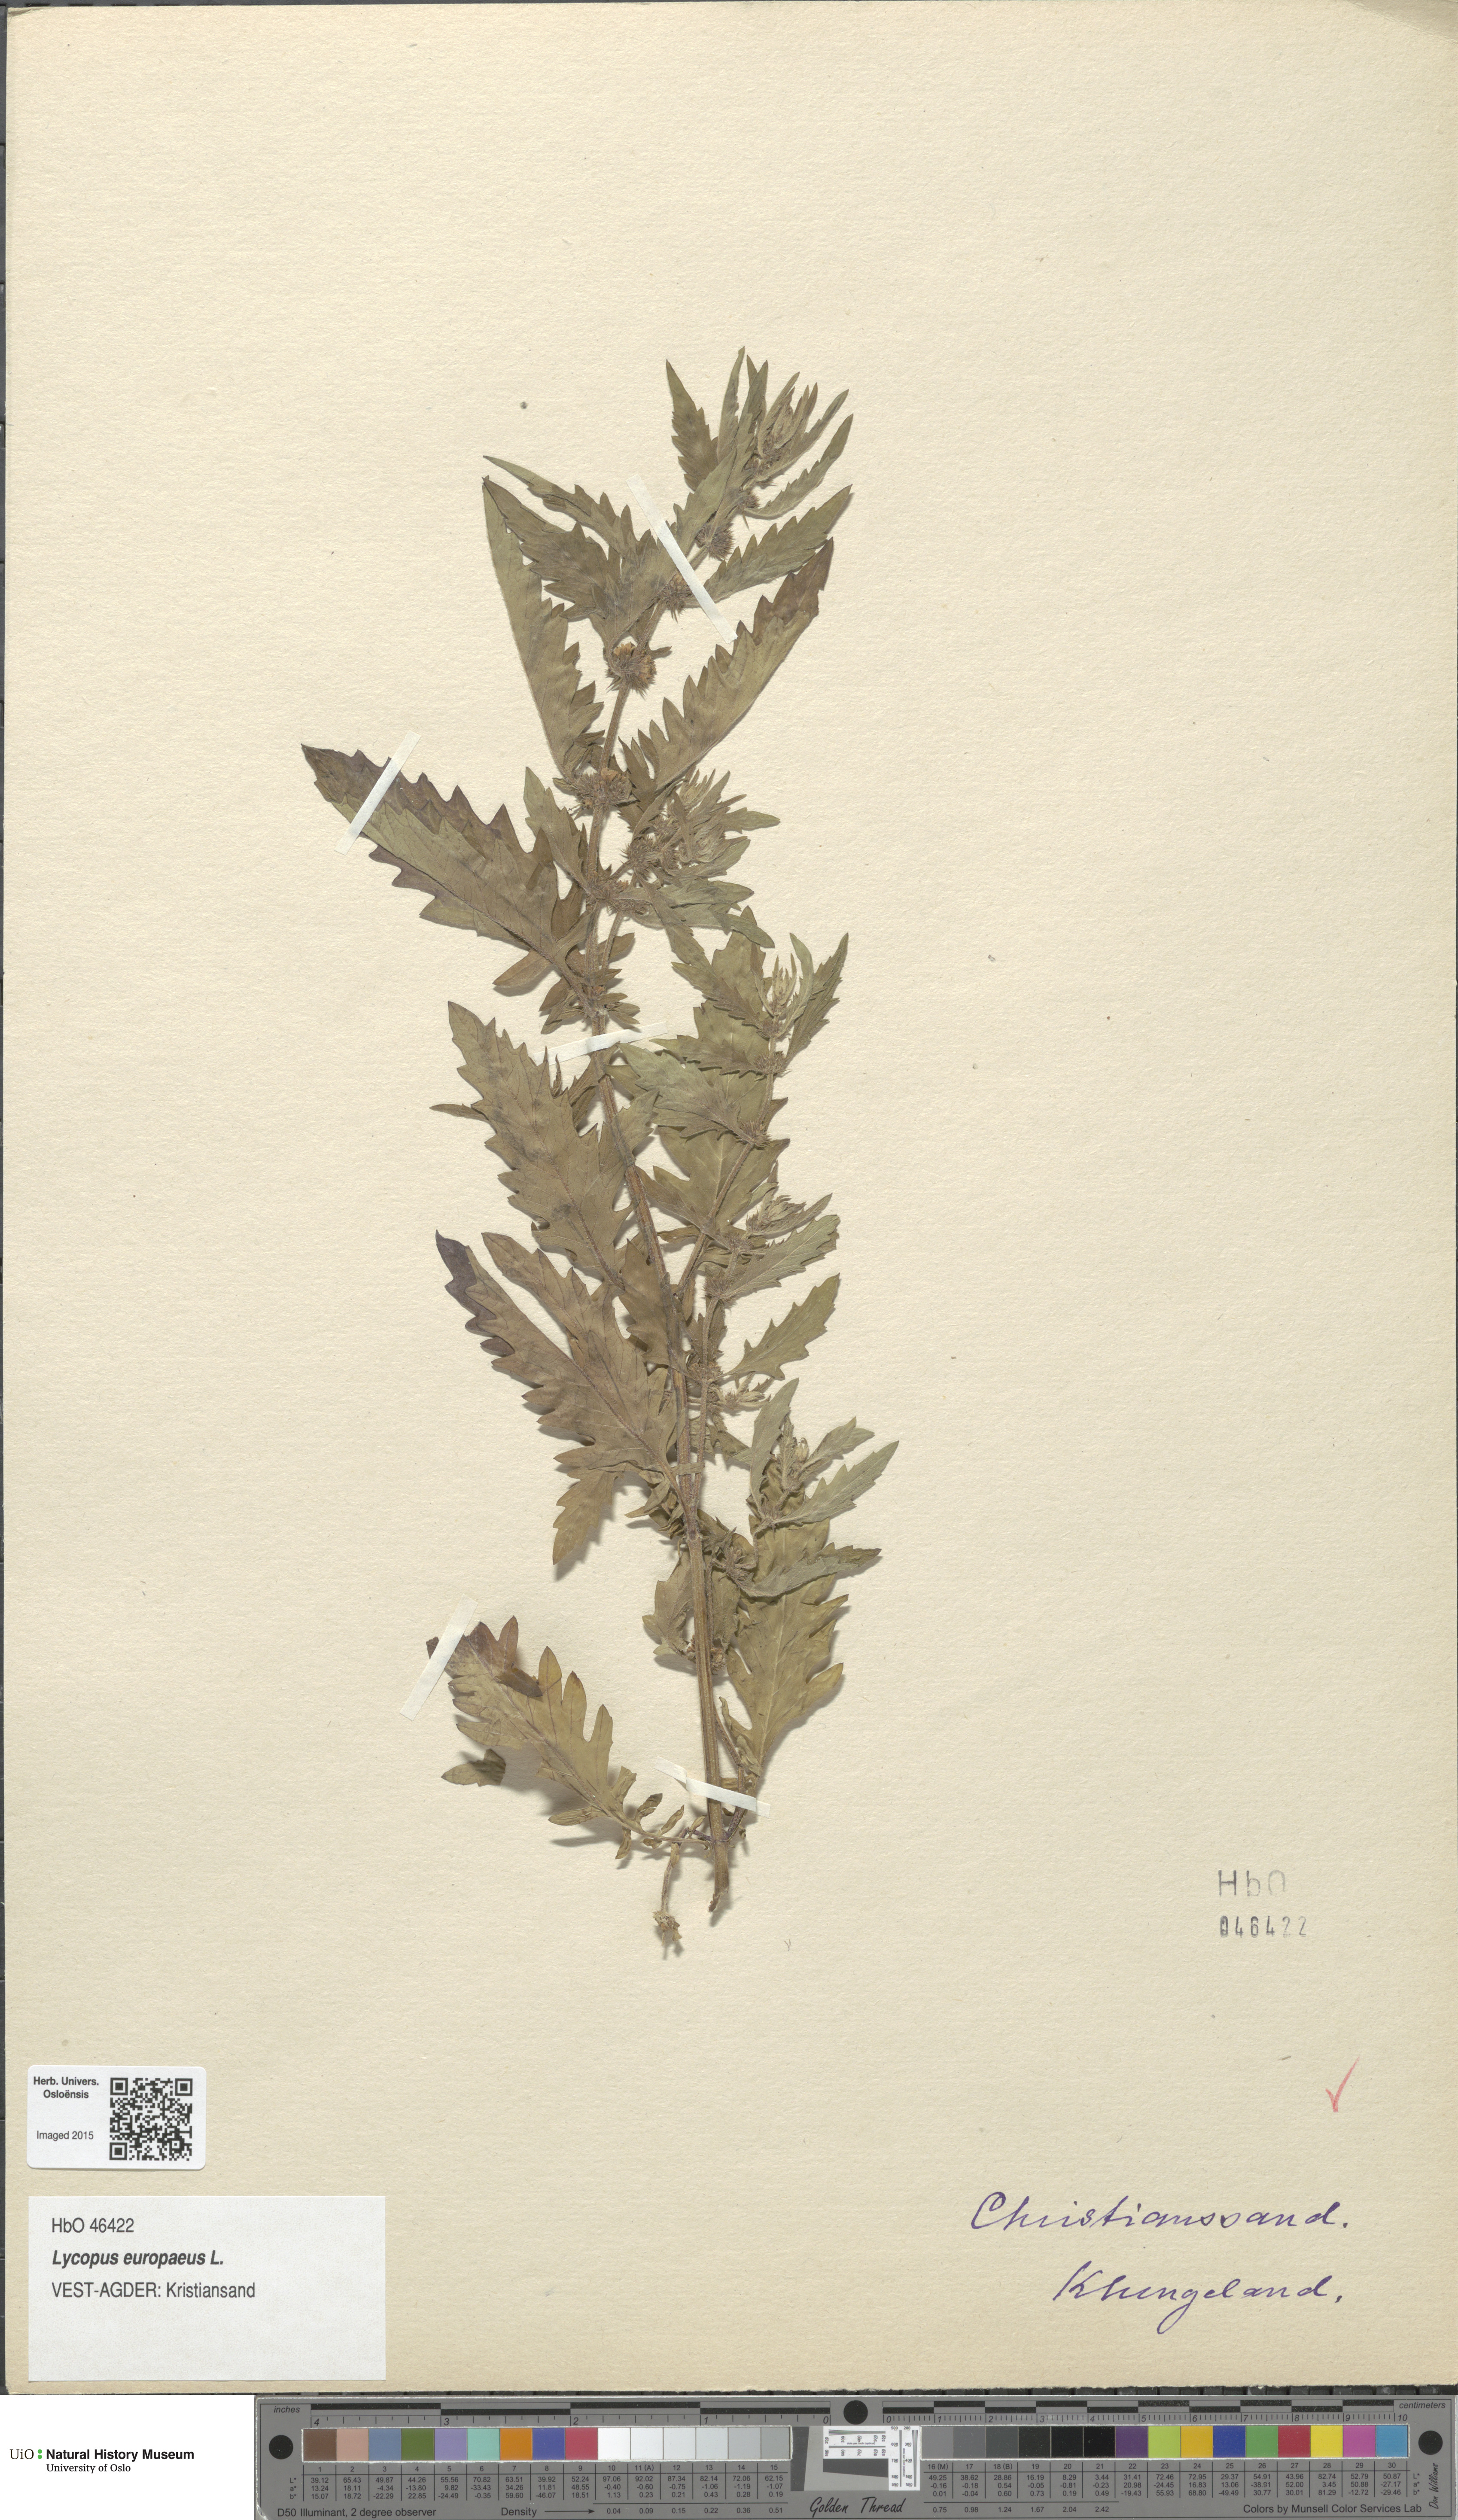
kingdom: Plantae
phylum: Tracheophyta
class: Magnoliopsida
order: Lamiales
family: Lamiaceae
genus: Lycopus
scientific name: Lycopus europaeus
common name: European bugleweed
